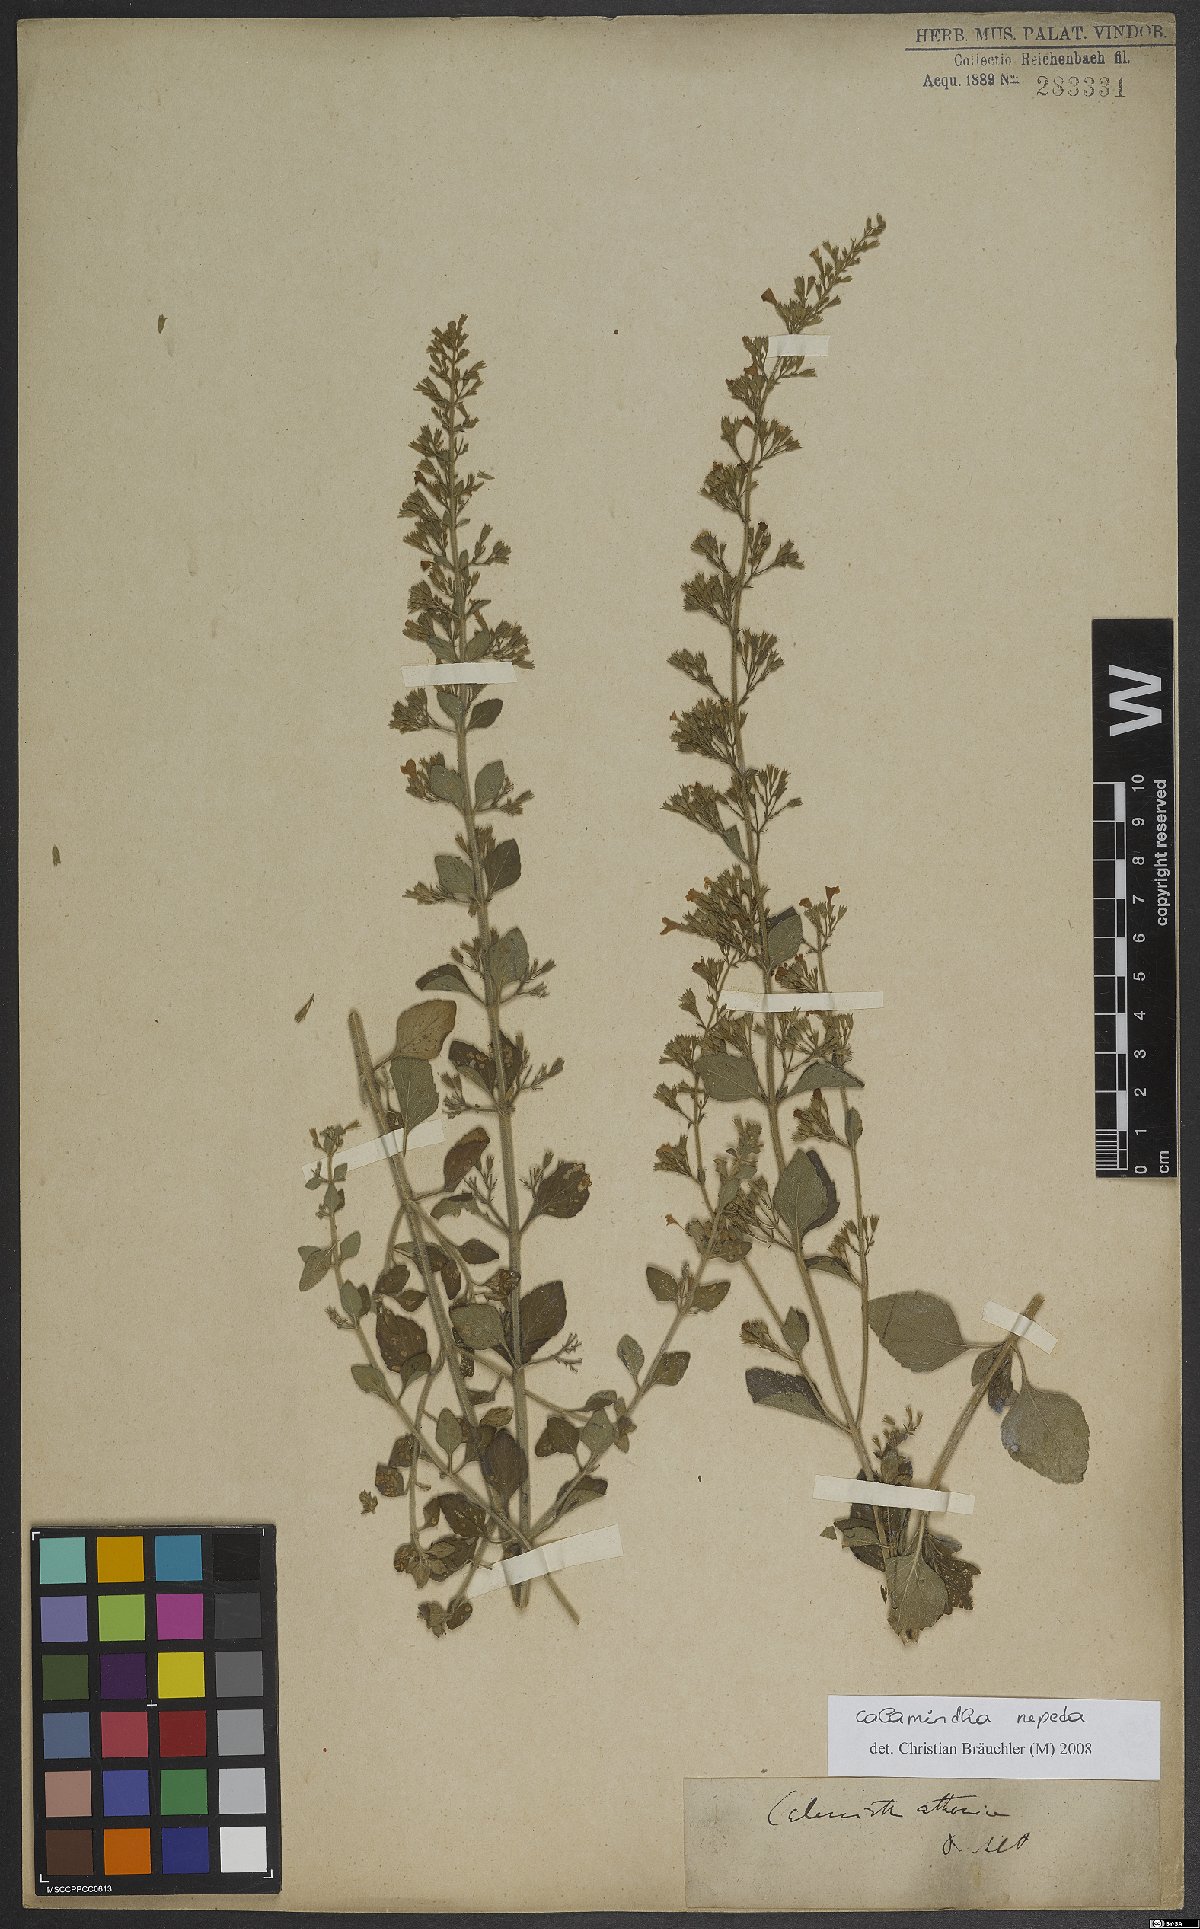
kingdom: Plantae
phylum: Tracheophyta
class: Magnoliopsida
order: Lamiales
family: Lamiaceae
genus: Clinopodium
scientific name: Clinopodium nepeta
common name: Lesser calamint
